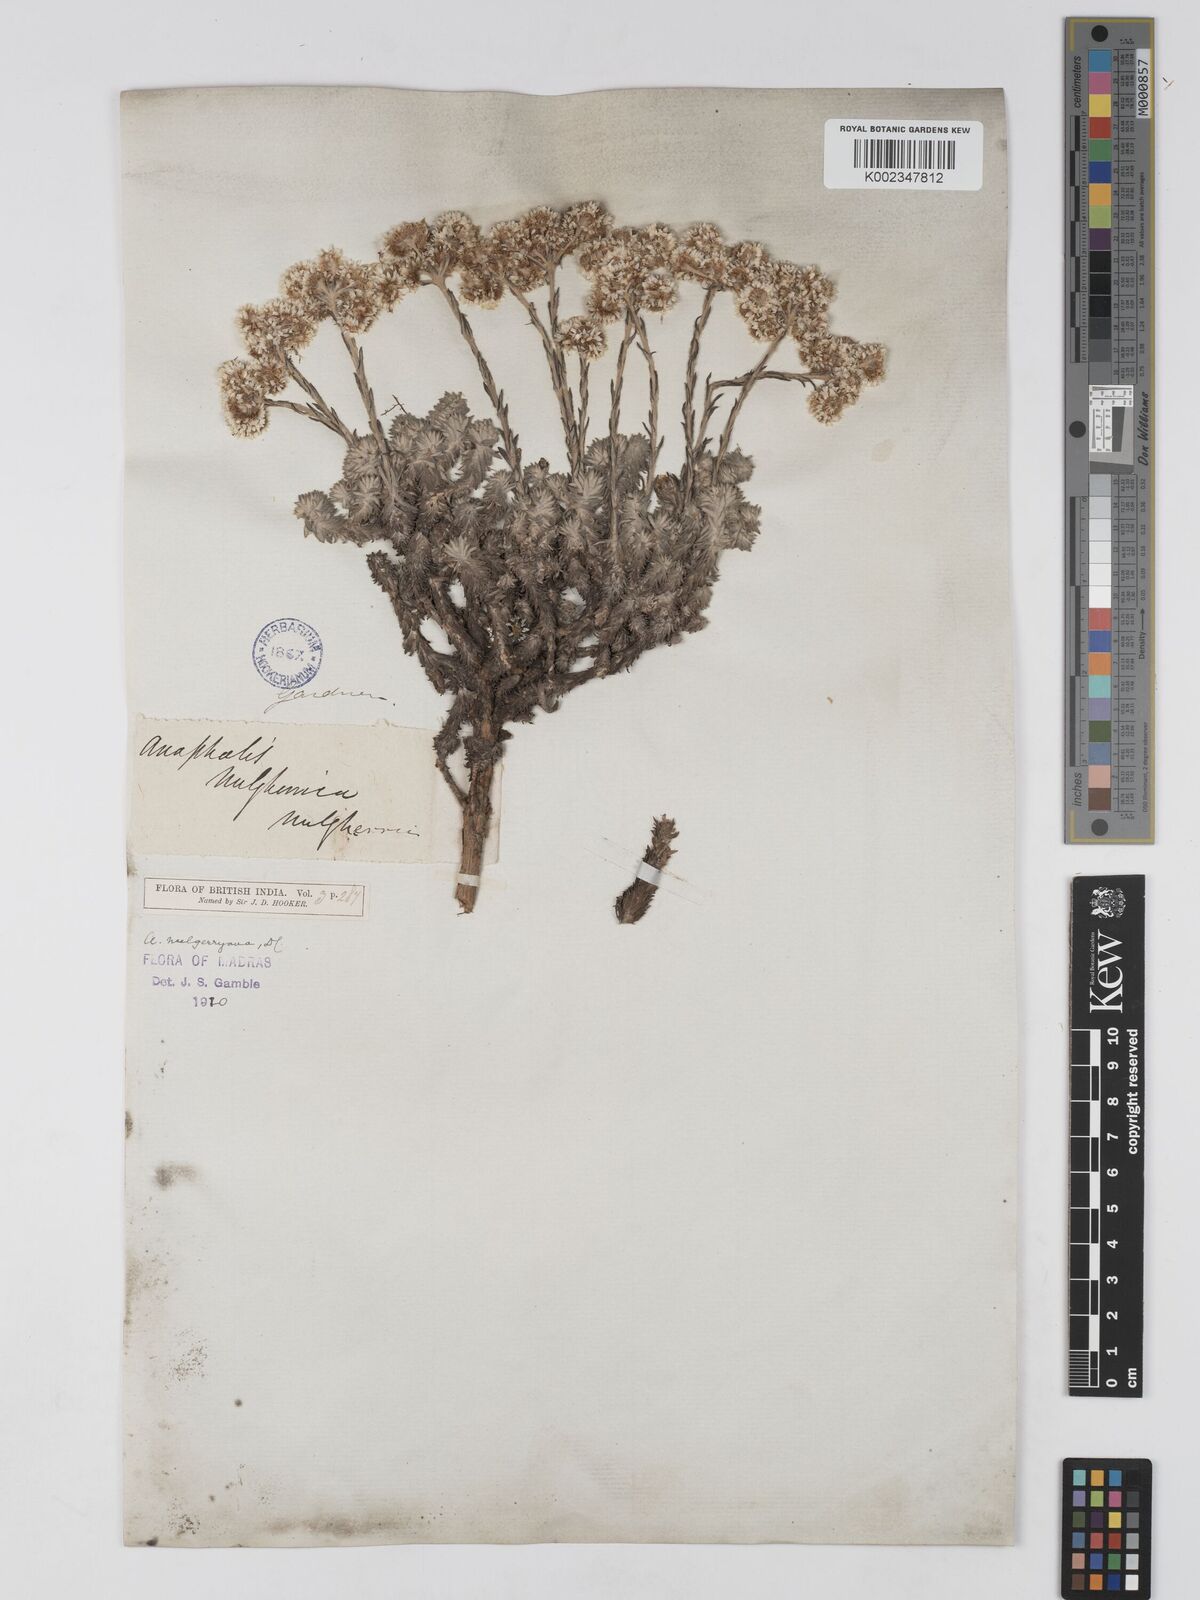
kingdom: Plantae
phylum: Tracheophyta
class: Magnoliopsida
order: Asterales
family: Asteraceae
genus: Anaphalis
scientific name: Anaphalis neelgerryana
